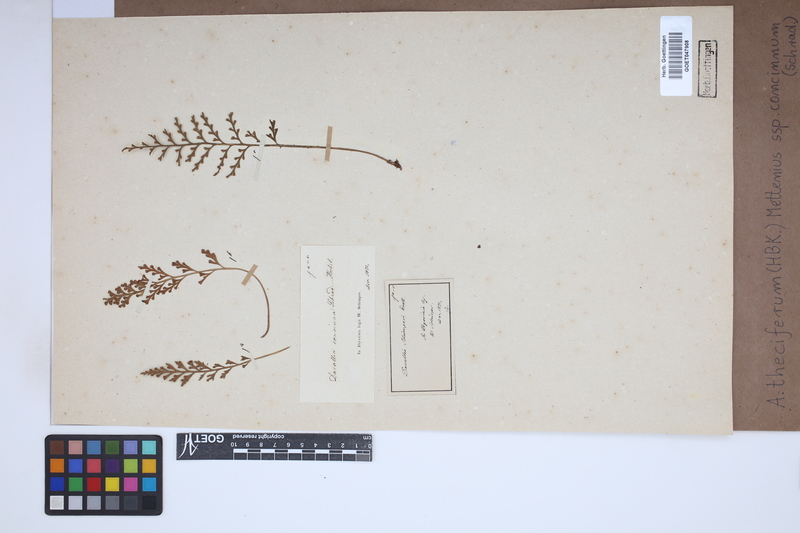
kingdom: Plantae
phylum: Tracheophyta
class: Polypodiopsida
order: Polypodiales
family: Aspleniaceae
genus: Asplenium
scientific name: Asplenium theciferum
